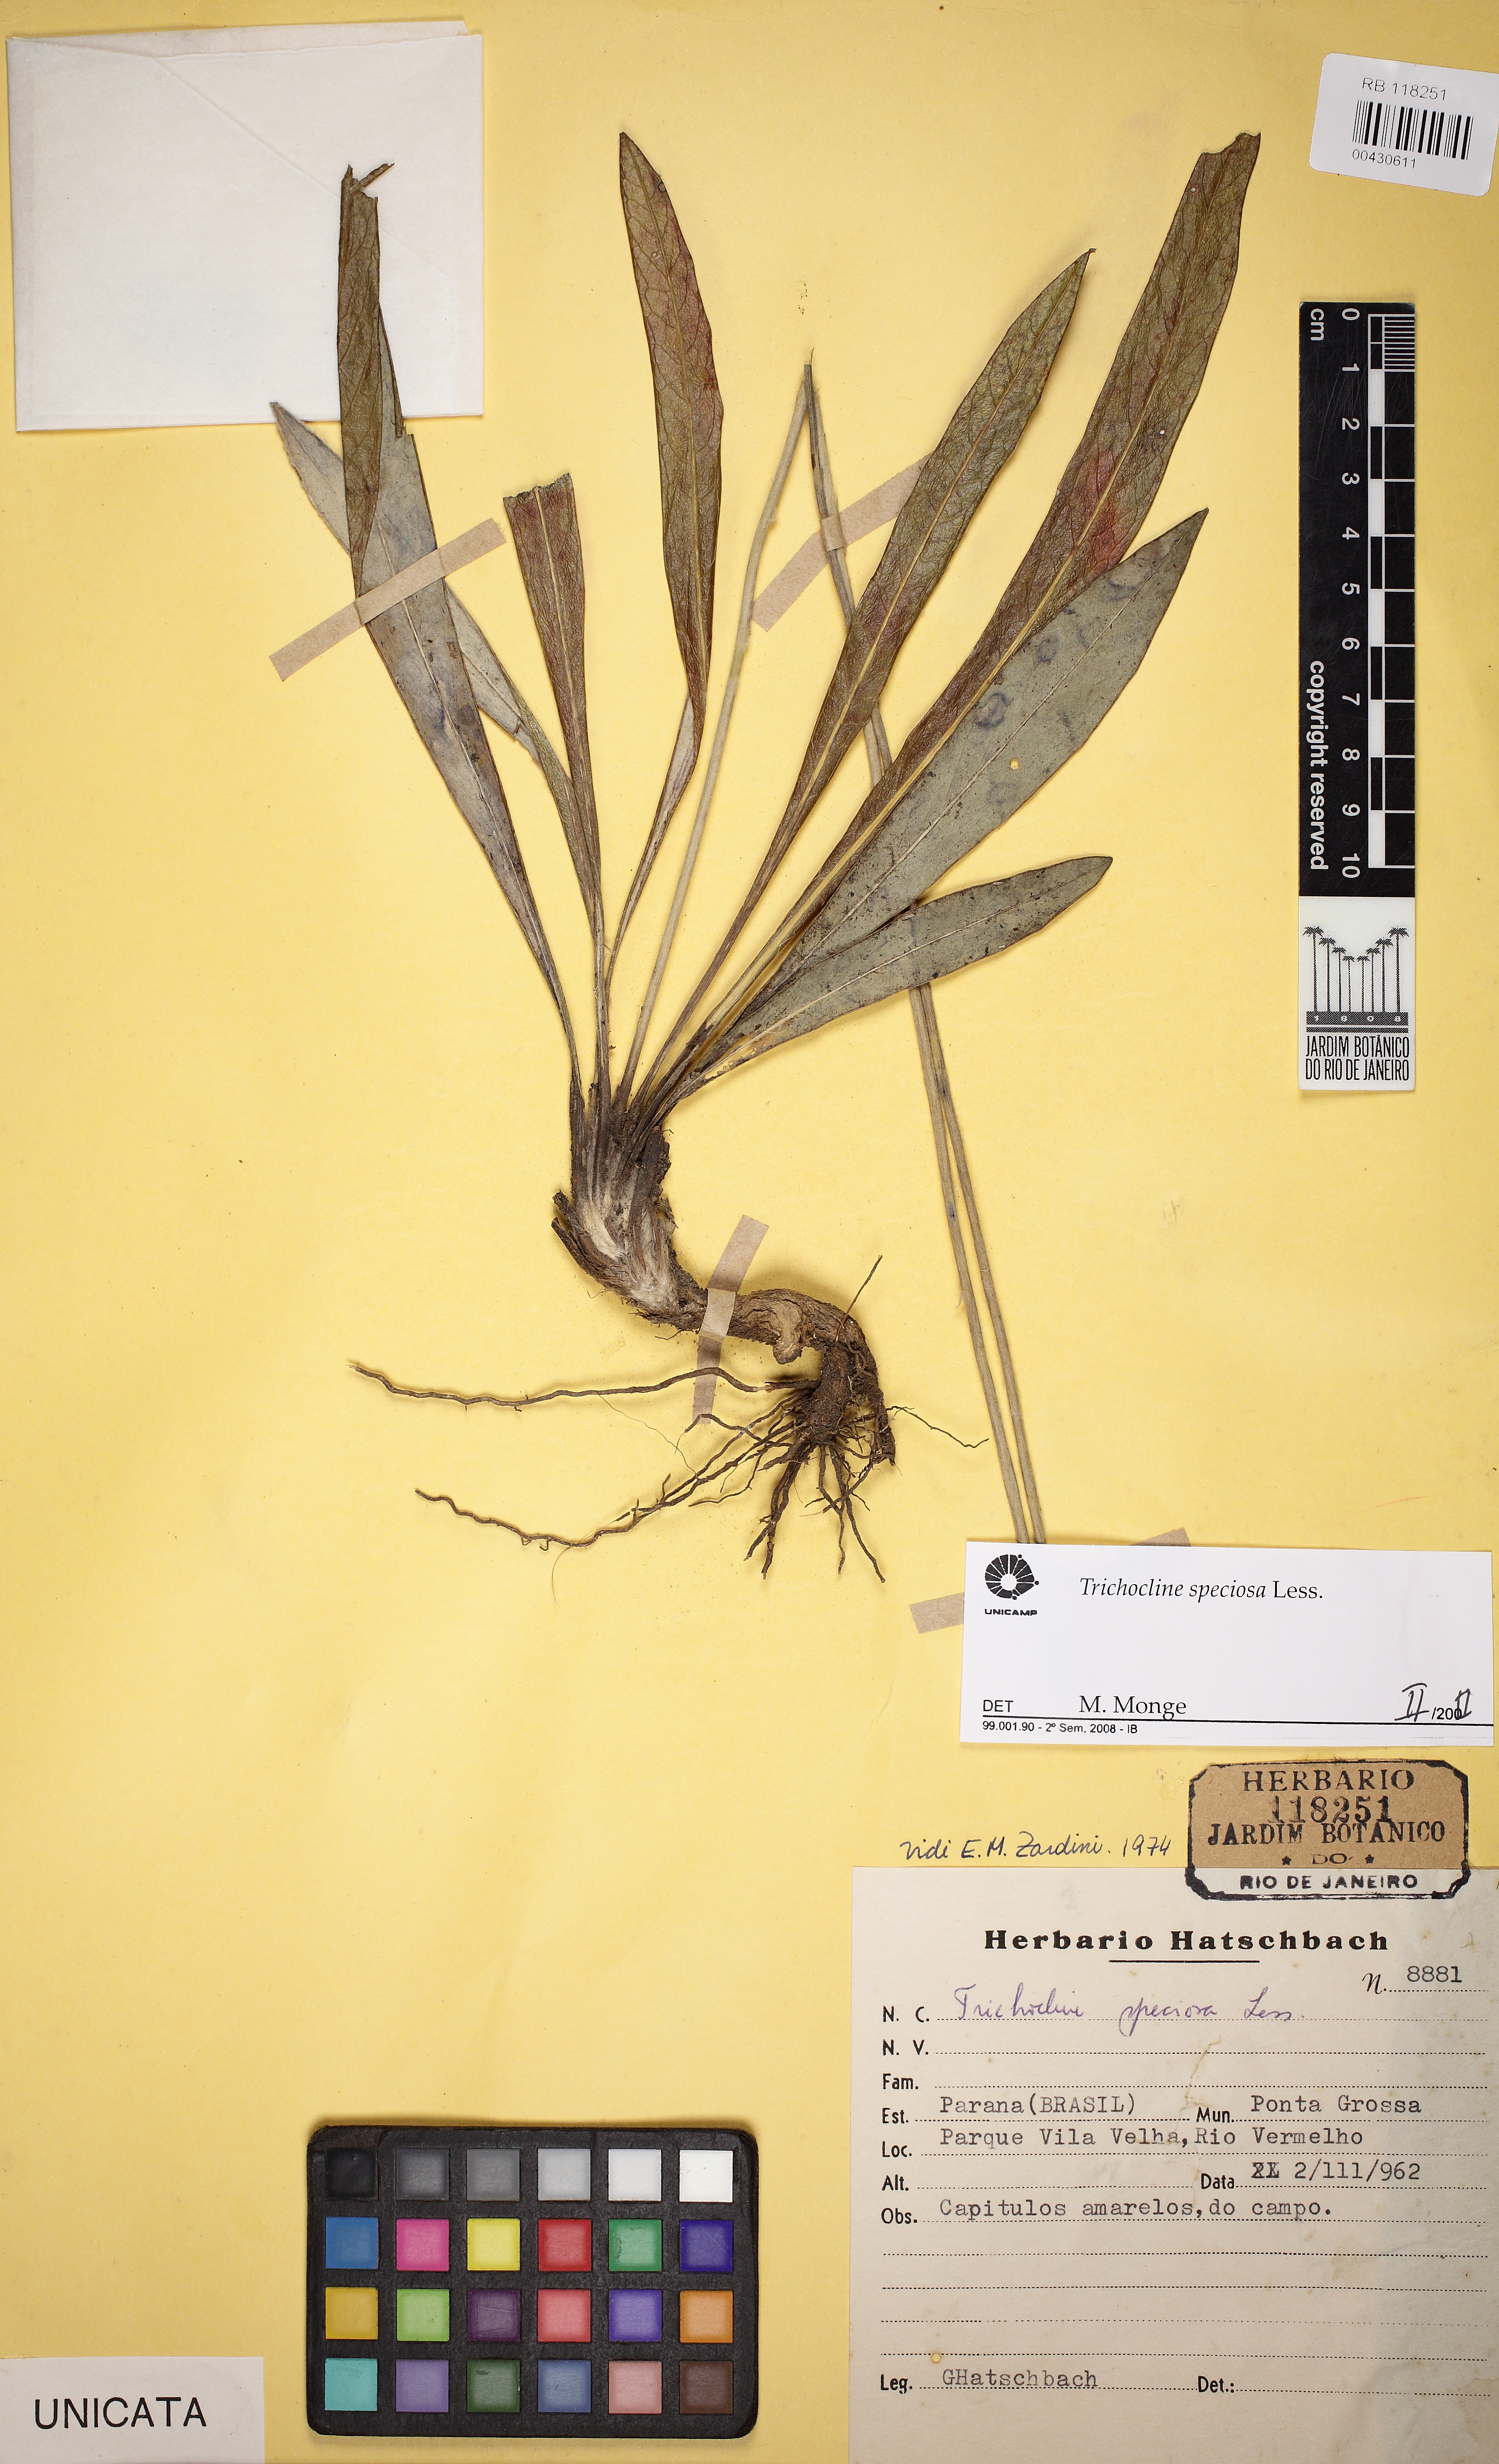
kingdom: Plantae
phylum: Tracheophyta
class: Magnoliopsida
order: Asterales
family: Asteraceae
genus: Trichocline
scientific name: Trichocline speciosa
